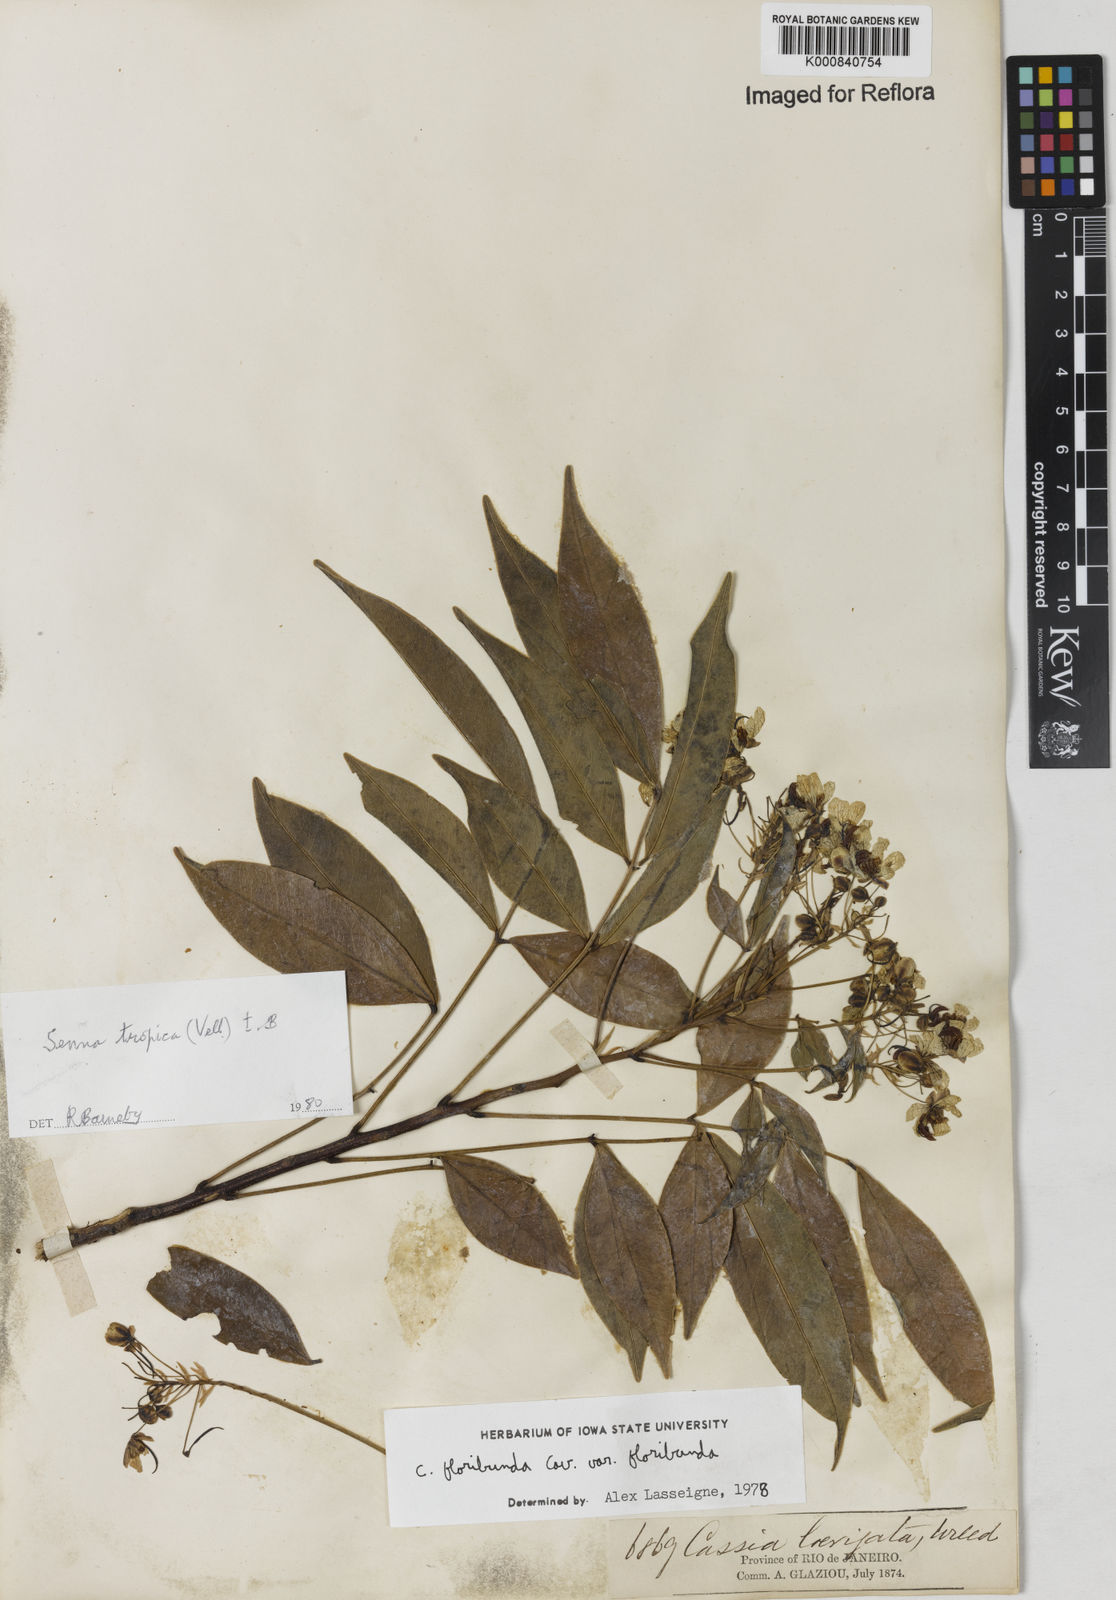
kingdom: Plantae
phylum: Tracheophyta
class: Magnoliopsida
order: Fabales
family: Fabaceae
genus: Senna
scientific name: Senna tropica
